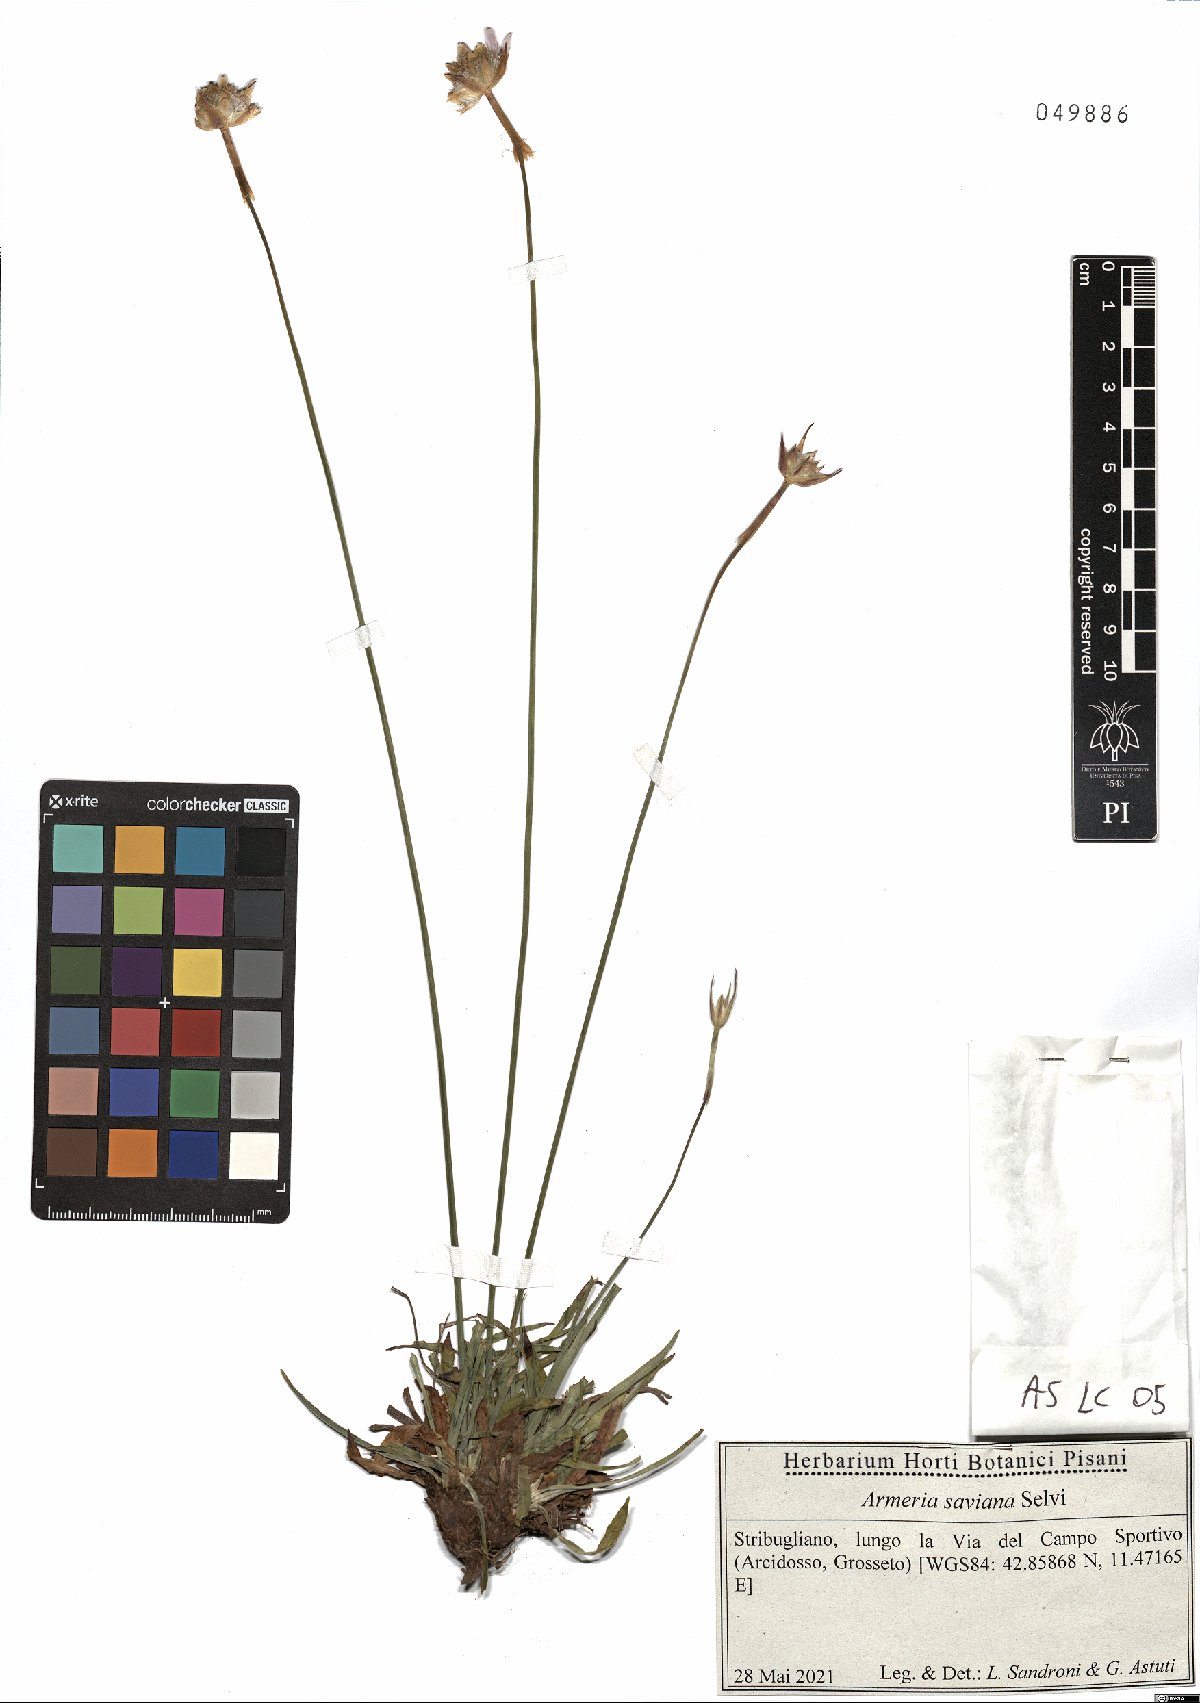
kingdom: Plantae
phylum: Tracheophyta
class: Magnoliopsida
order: Caryophyllales
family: Plumbaginaceae
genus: Armeria
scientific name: Armeria saviana
